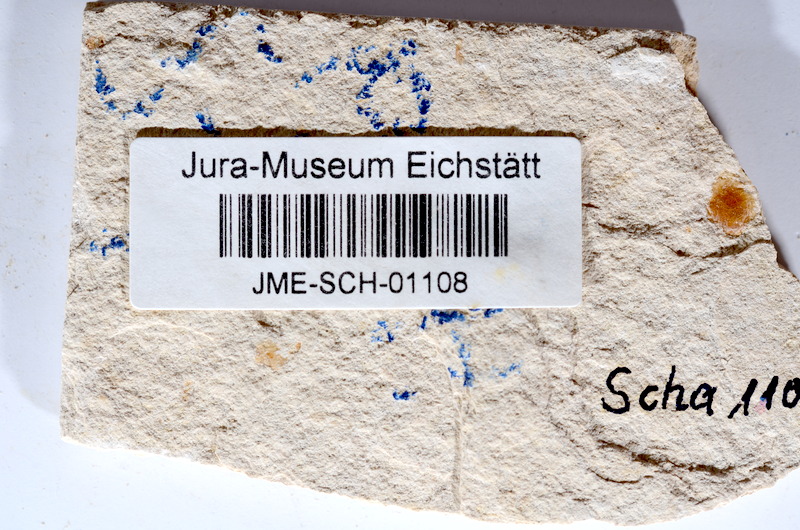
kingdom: Animalia
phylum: Chordata
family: Ascalaboidae
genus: Tharsis
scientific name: Tharsis dubius
